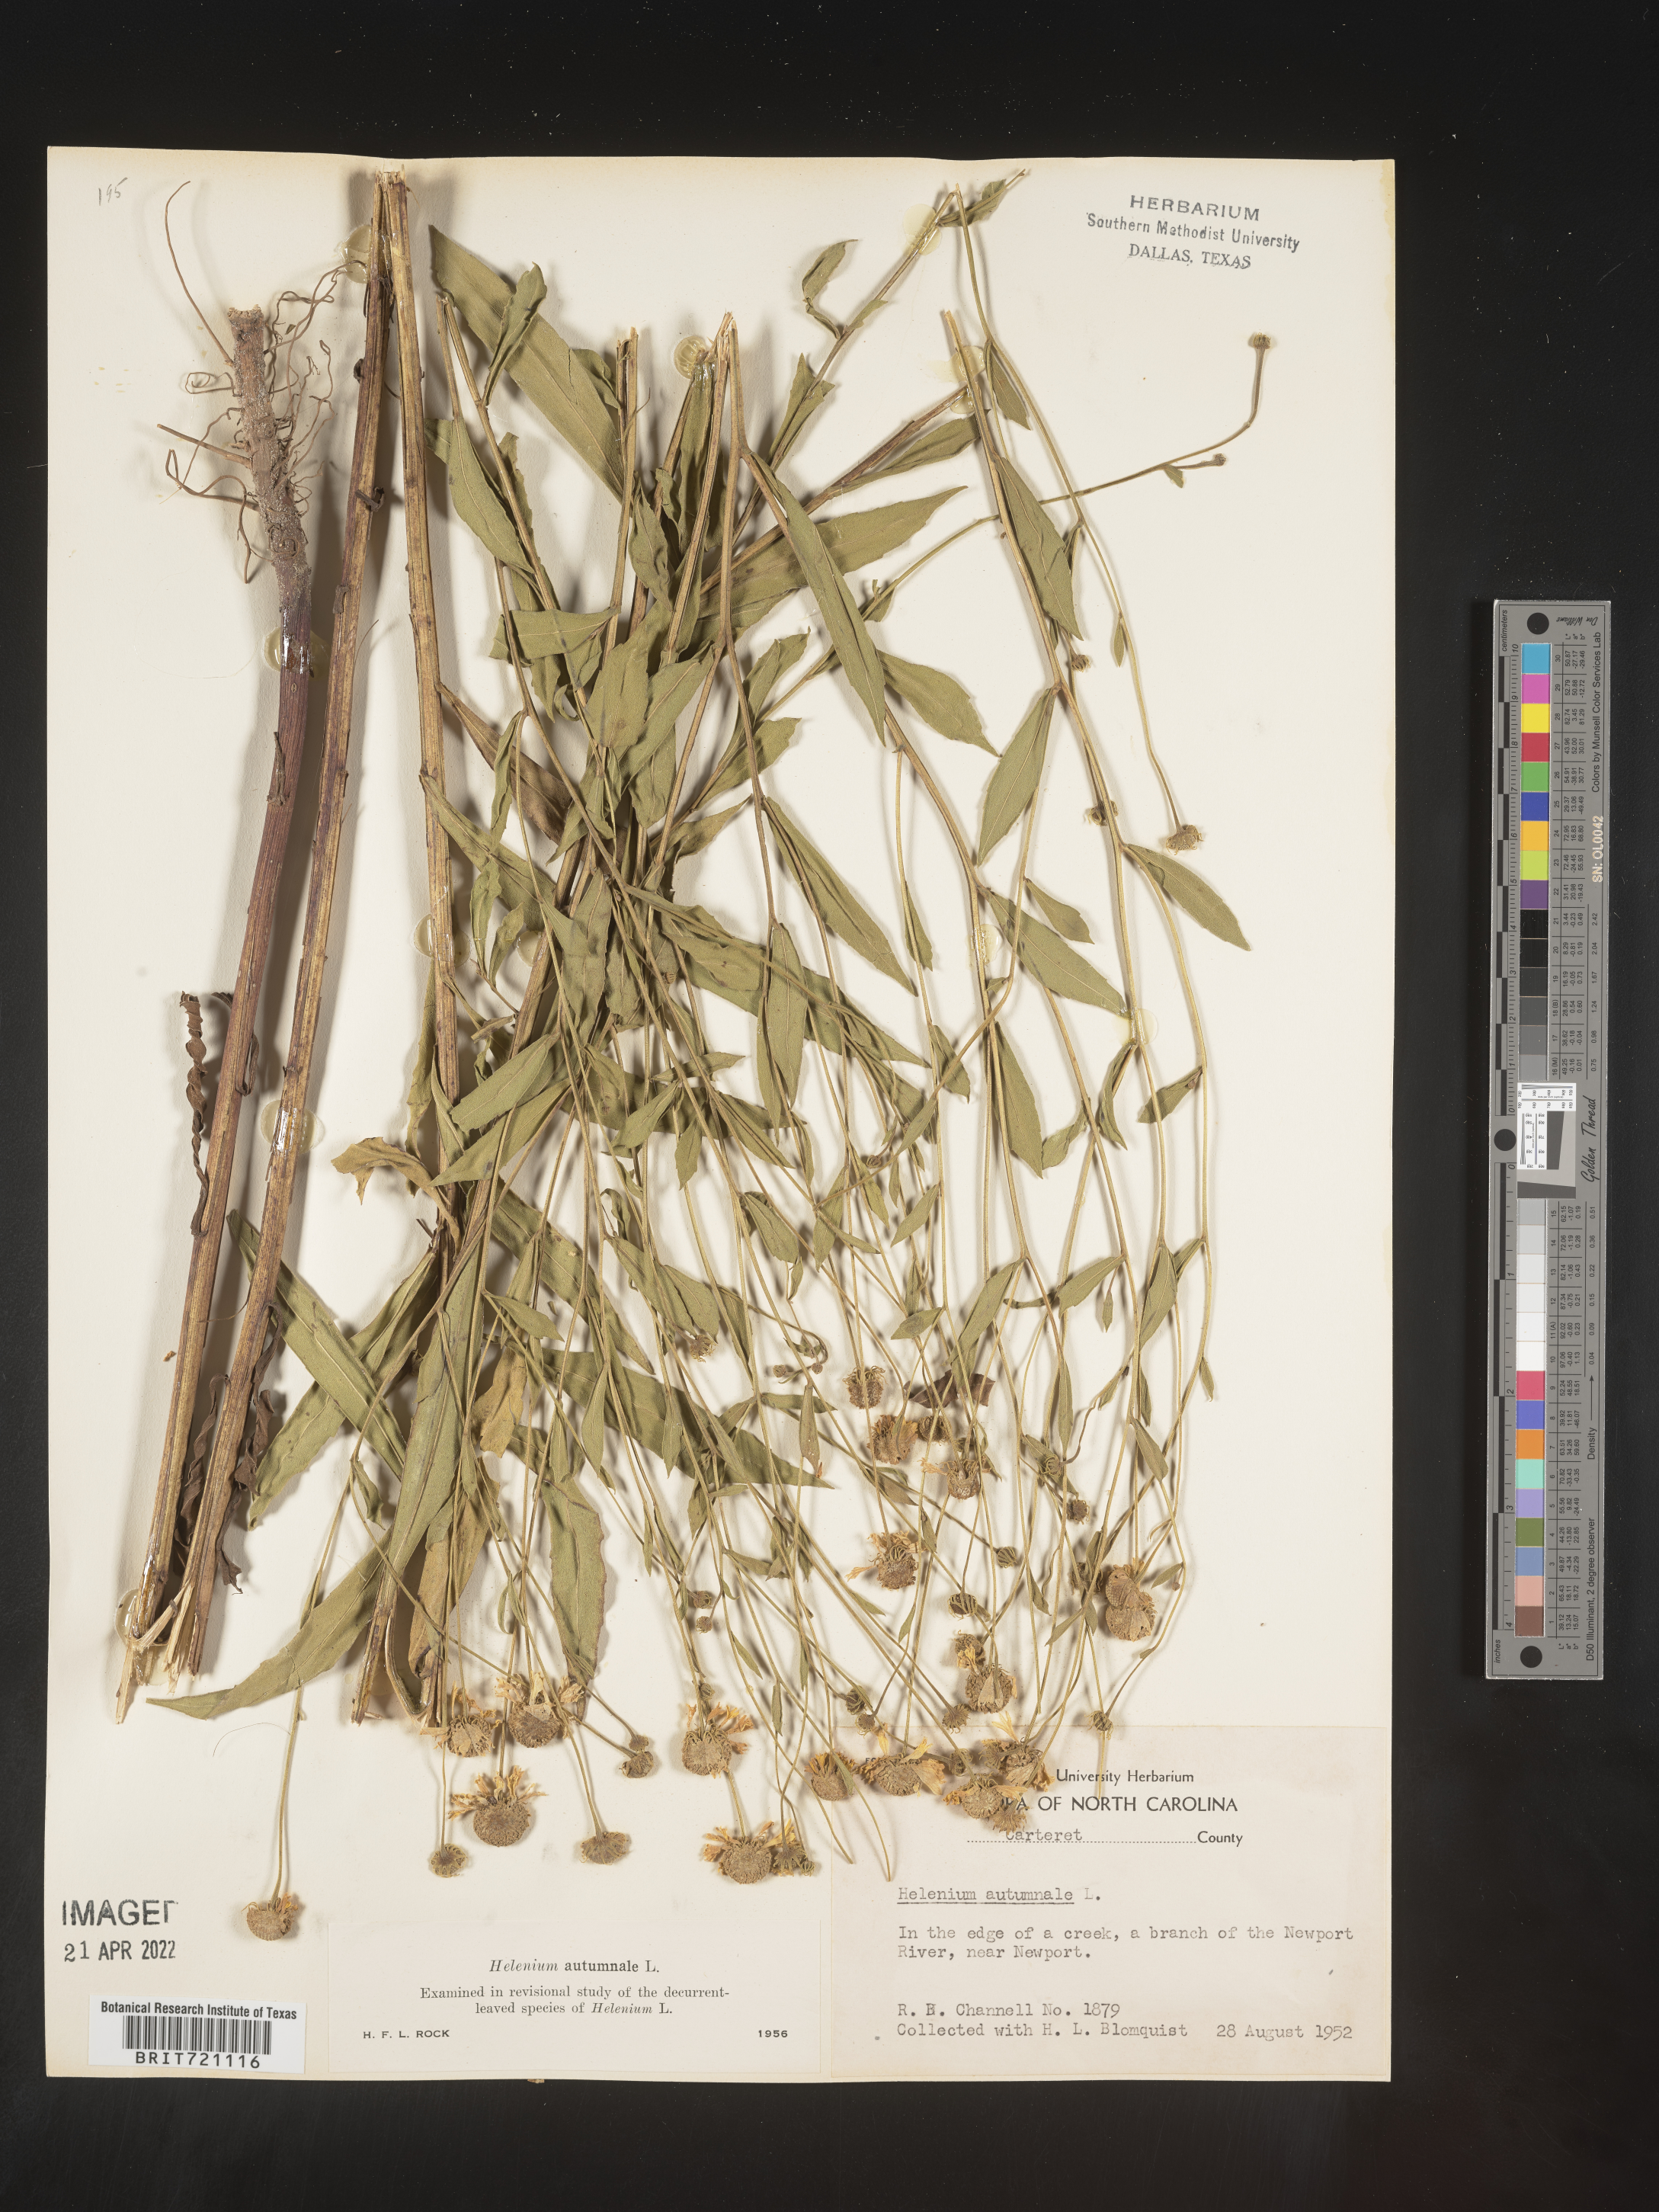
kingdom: Plantae
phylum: Tracheophyta
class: Magnoliopsida
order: Asterales
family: Asteraceae
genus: Helenium
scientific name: Helenium autumnale
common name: Sneezeweed
